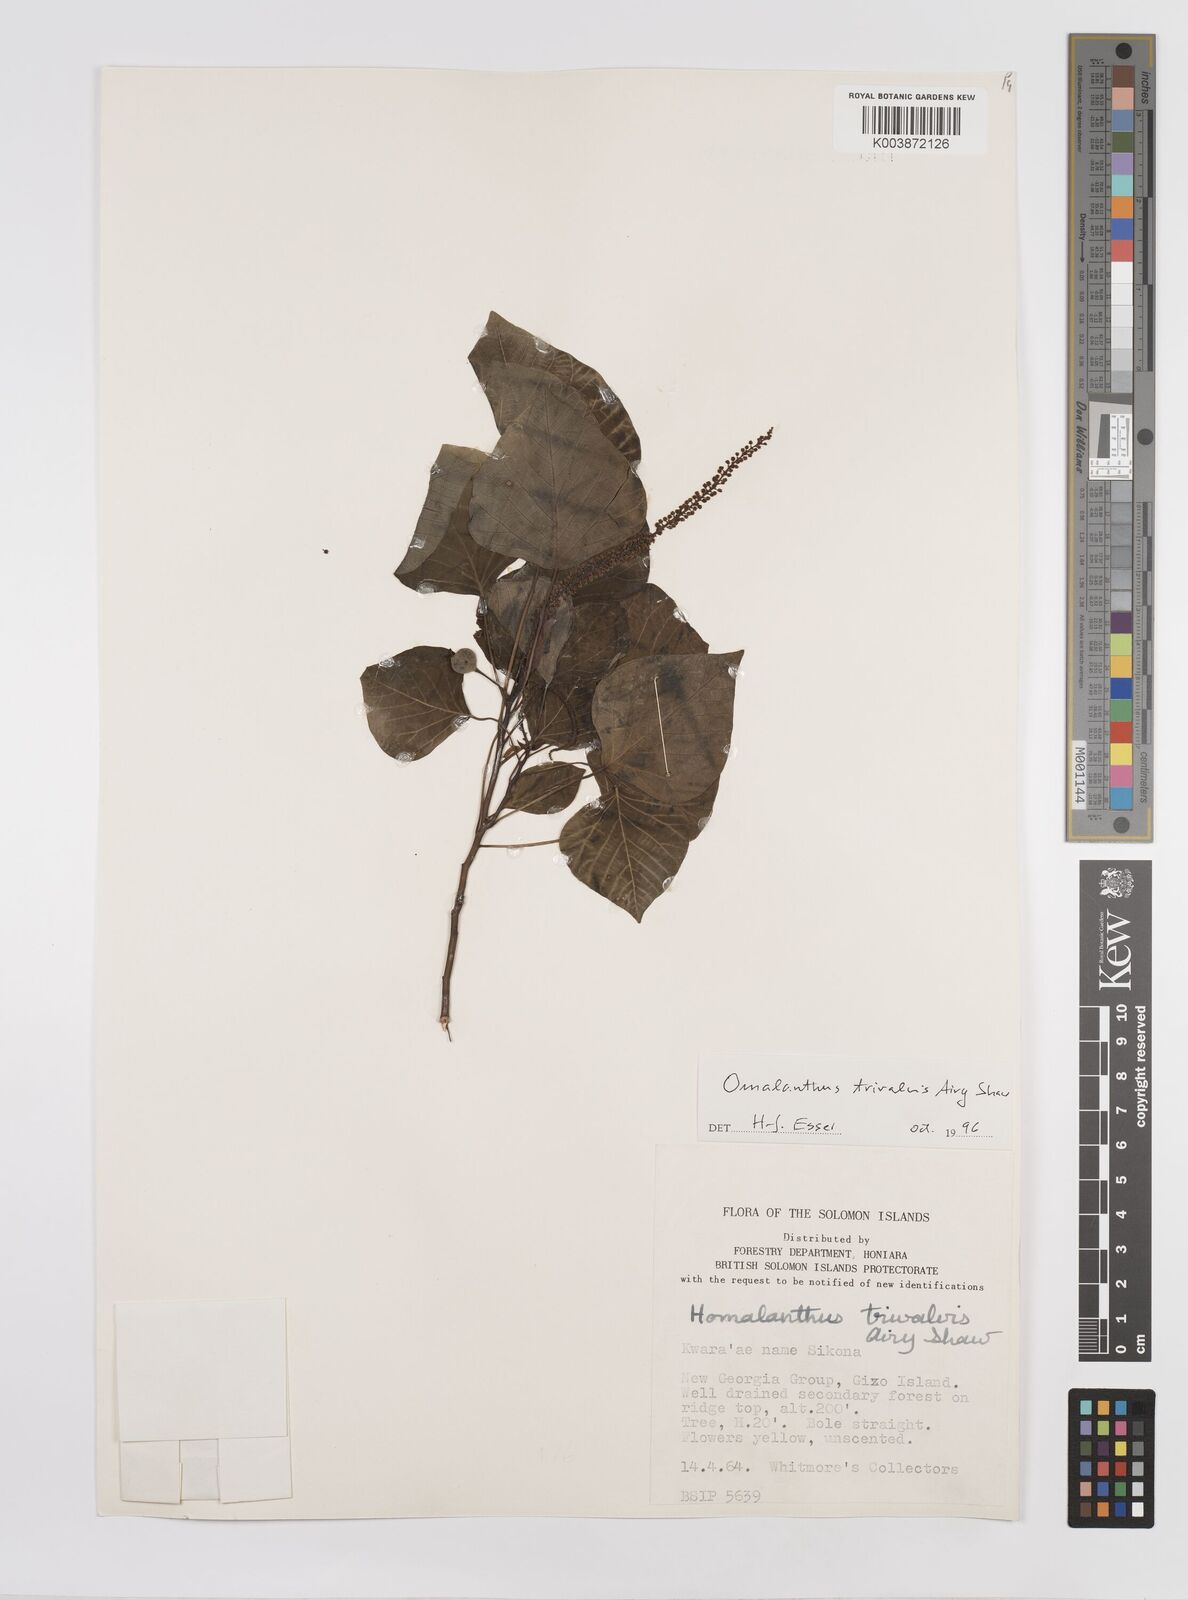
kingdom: Plantae
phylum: Tracheophyta
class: Magnoliopsida
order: Malpighiales
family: Euphorbiaceae
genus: Homalanthus
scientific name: Homalanthus trivalvis
